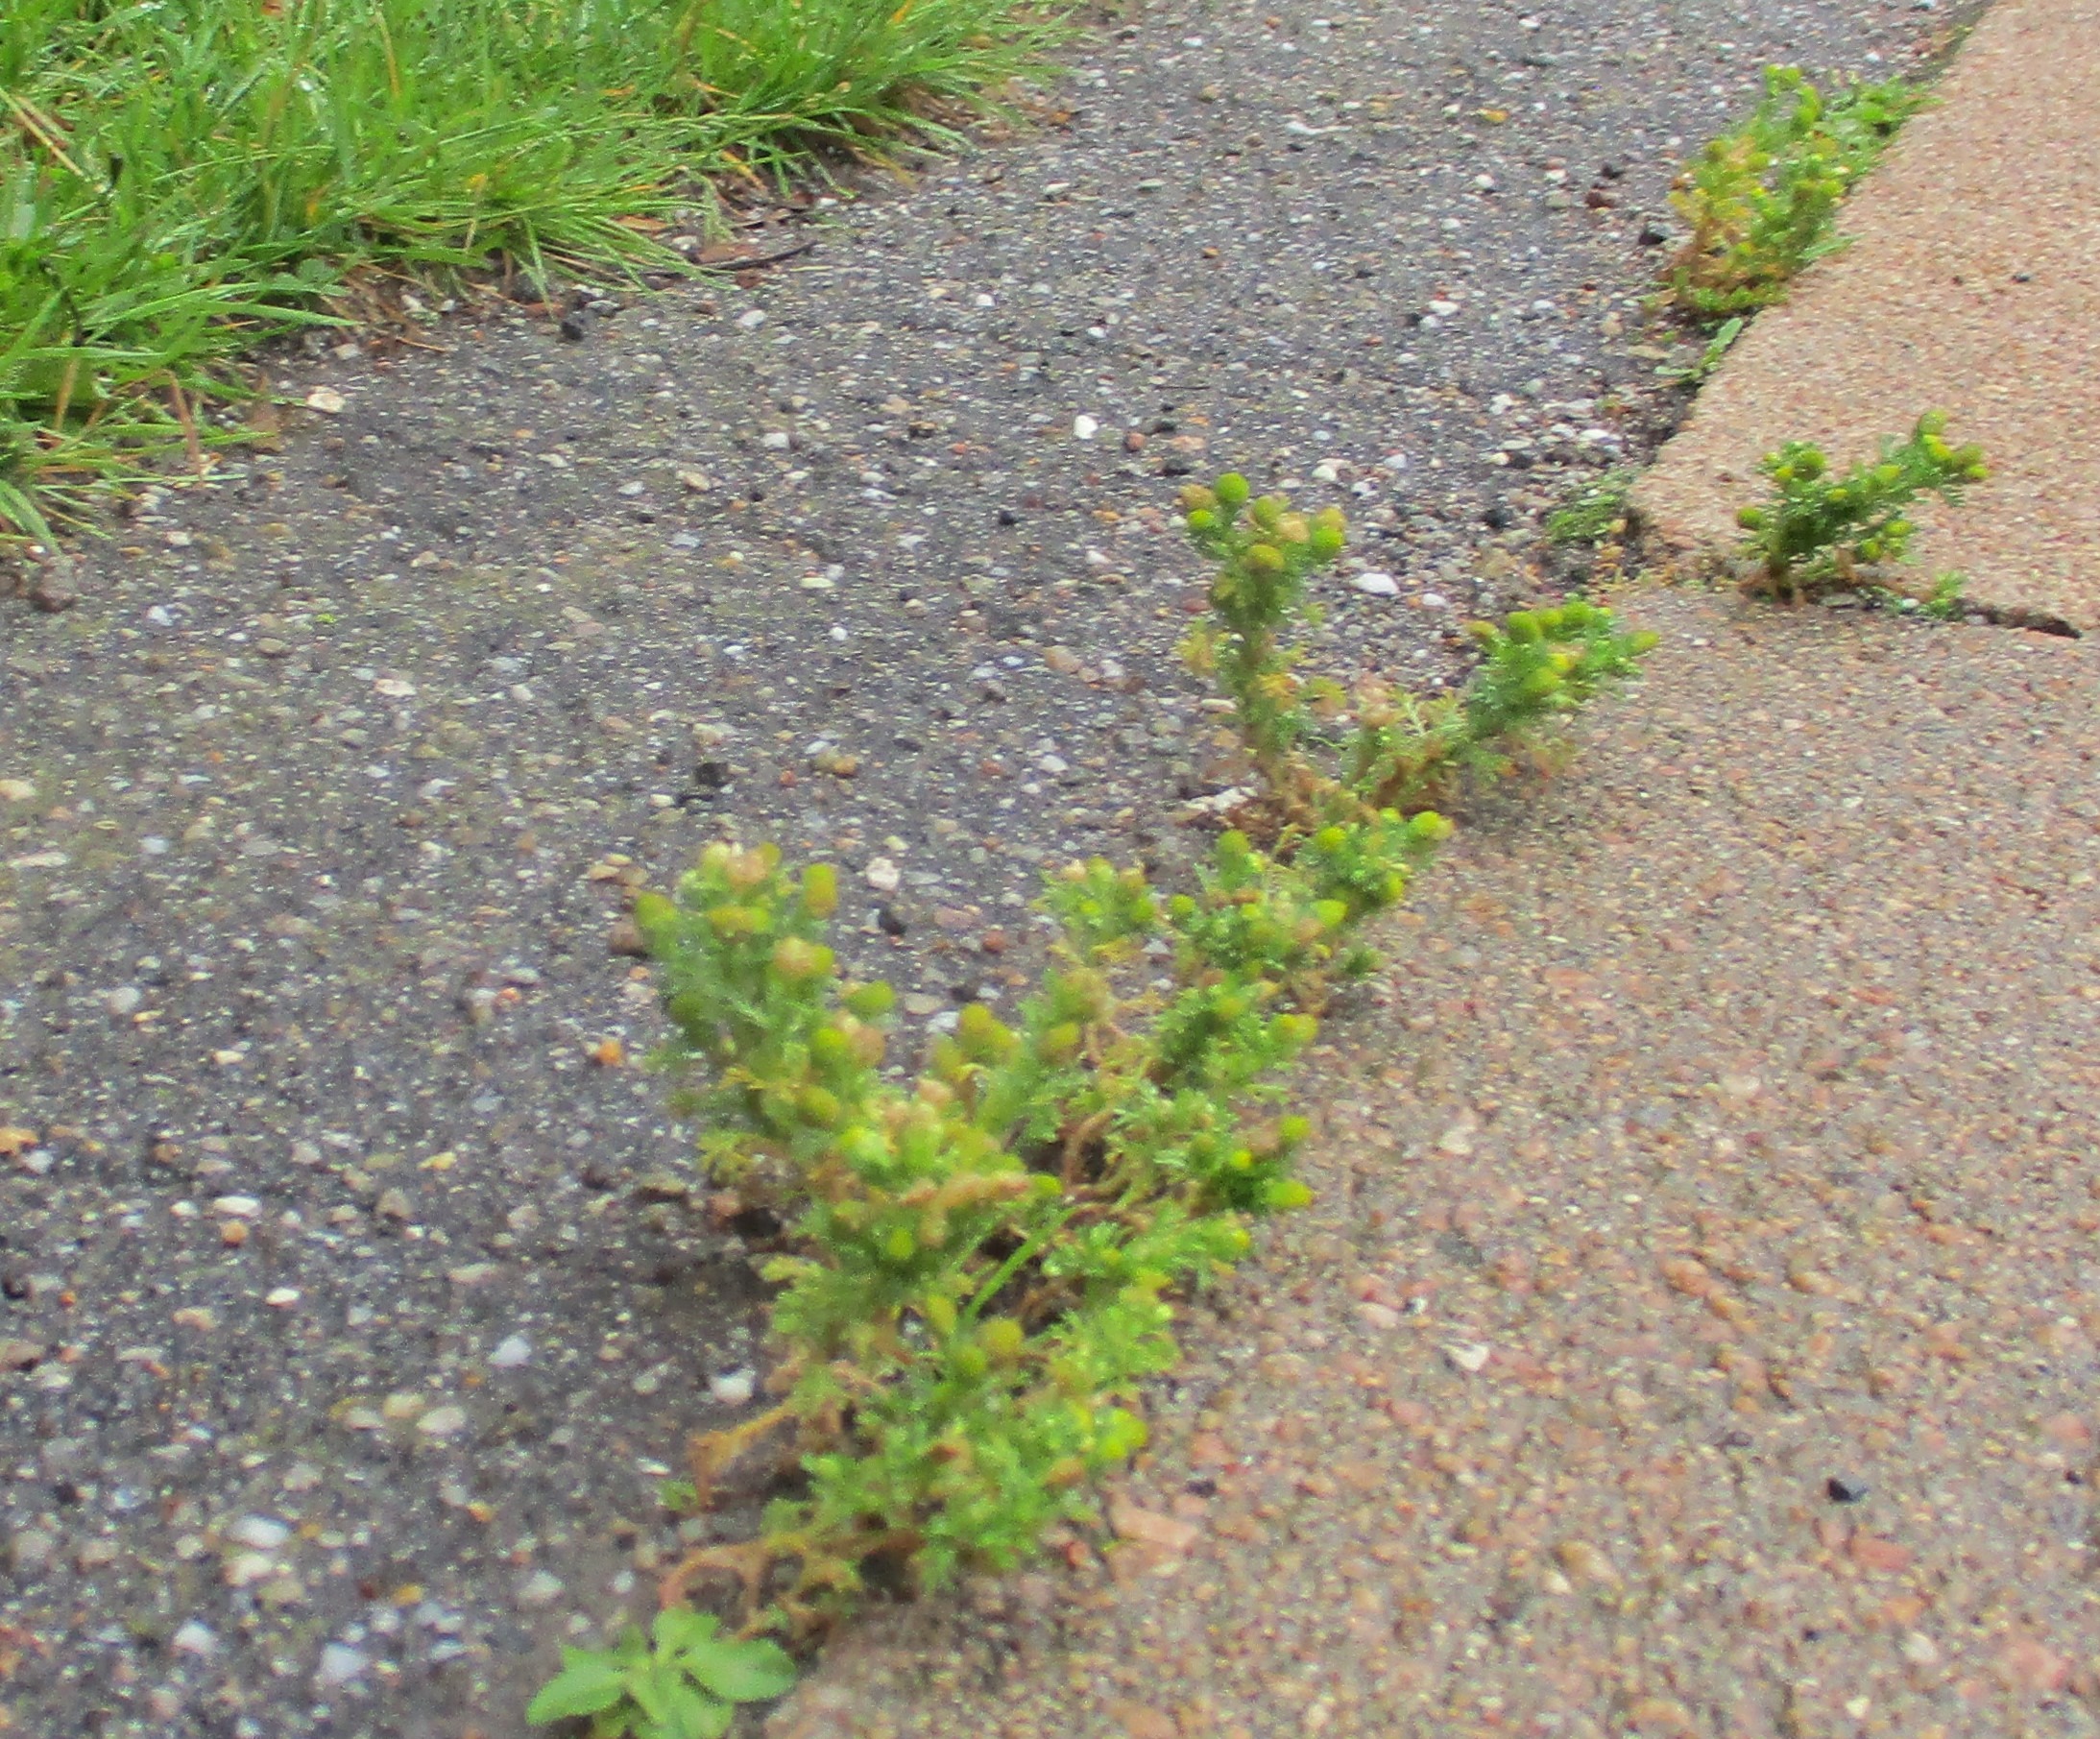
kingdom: Plantae
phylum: Tracheophyta
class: Magnoliopsida
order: Asterales
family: Asteraceae
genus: Matricaria
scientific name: Matricaria discoidea
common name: Skive-kamille
